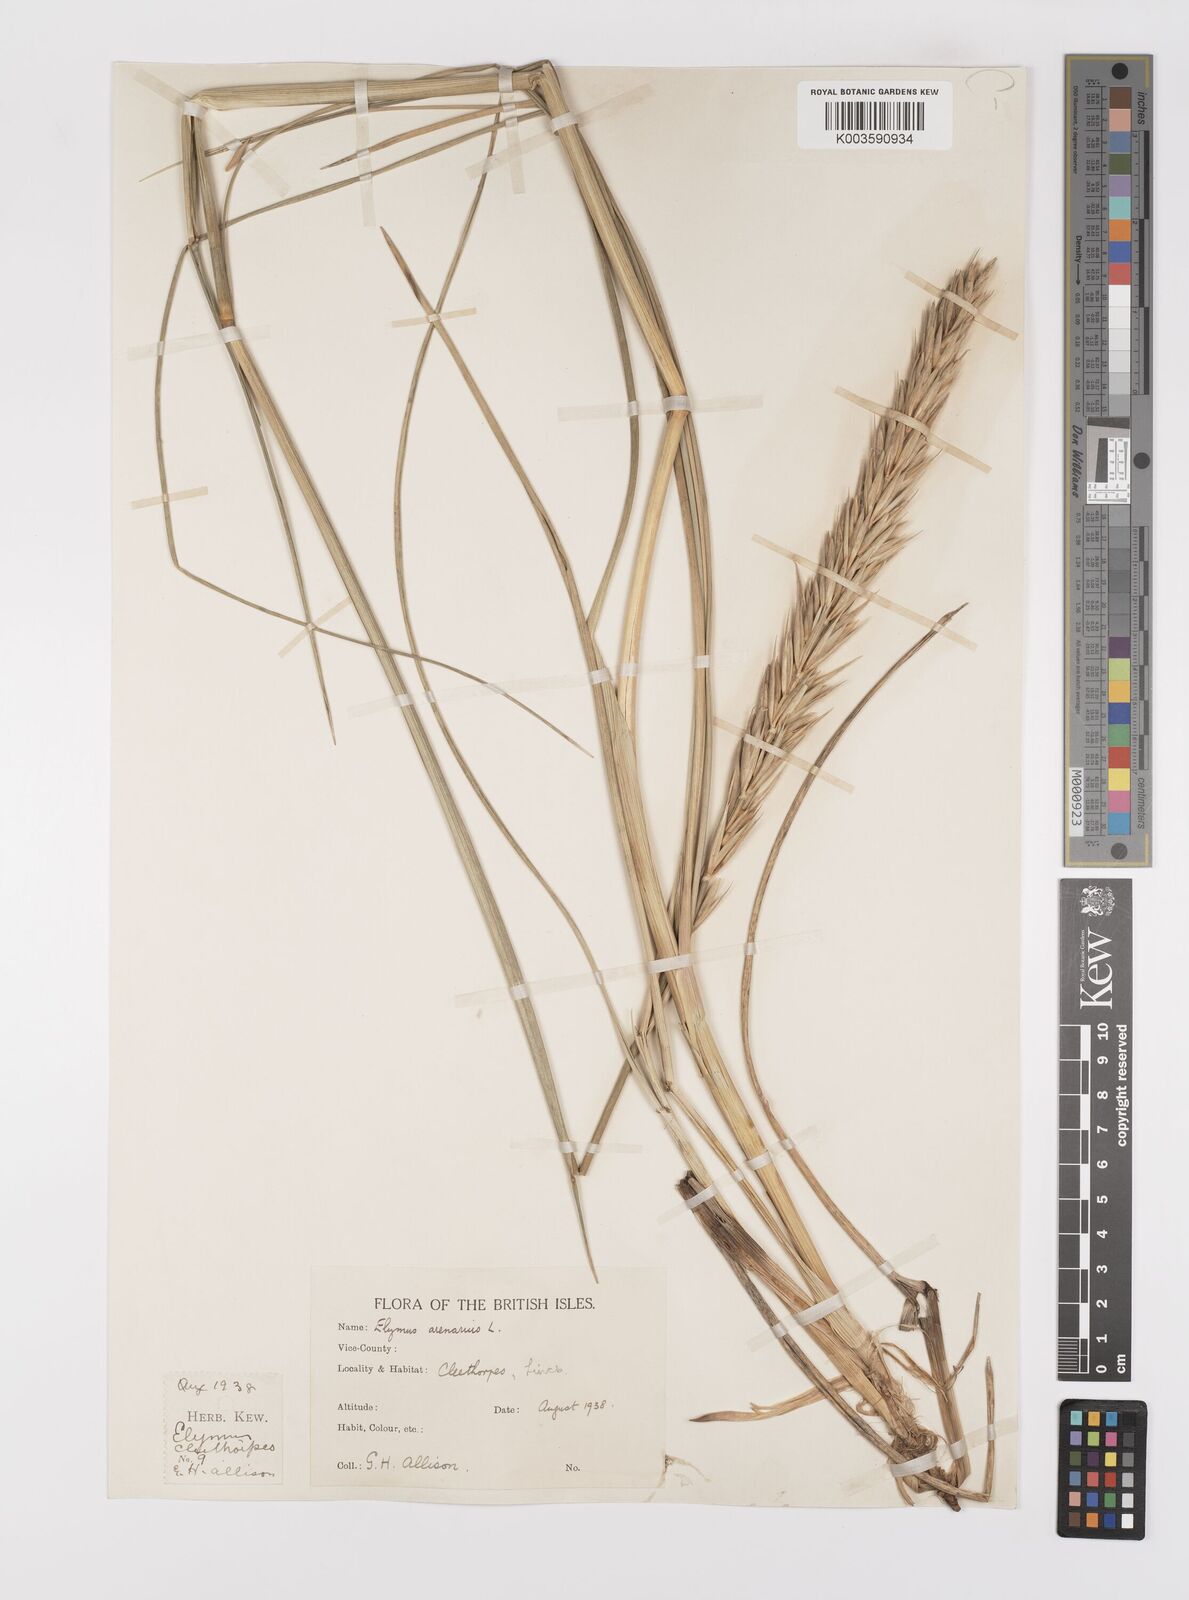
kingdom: Plantae
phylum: Tracheophyta
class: Liliopsida
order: Poales
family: Poaceae
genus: Leymus
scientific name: Leymus
